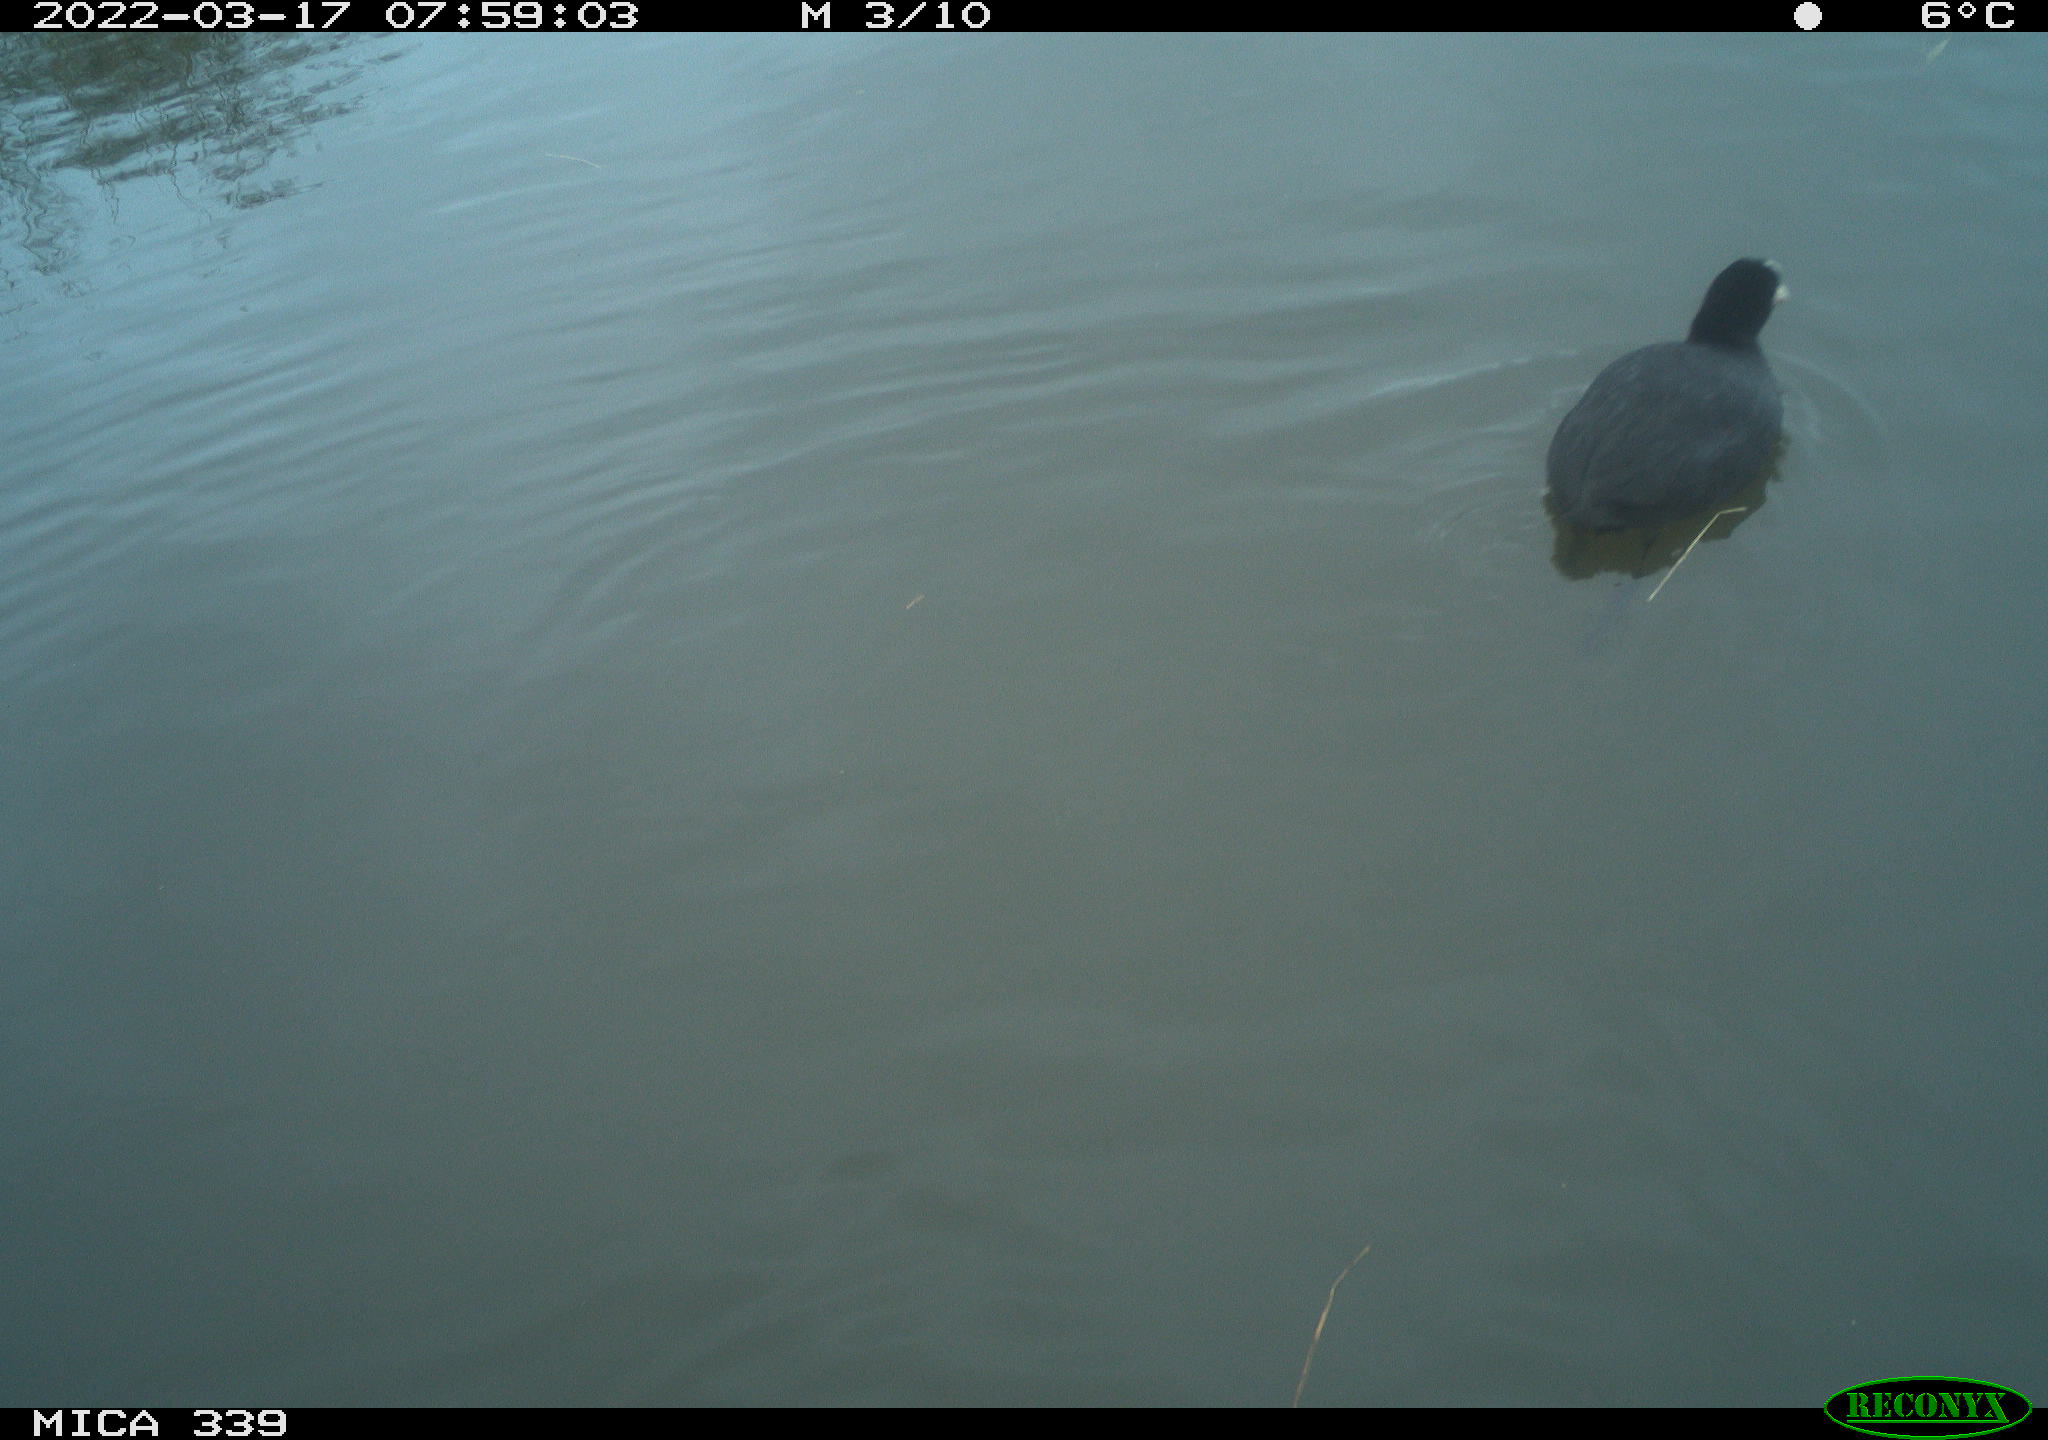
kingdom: Animalia
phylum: Chordata
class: Aves
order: Gruiformes
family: Rallidae
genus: Fulica
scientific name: Fulica atra
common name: Eurasian coot
